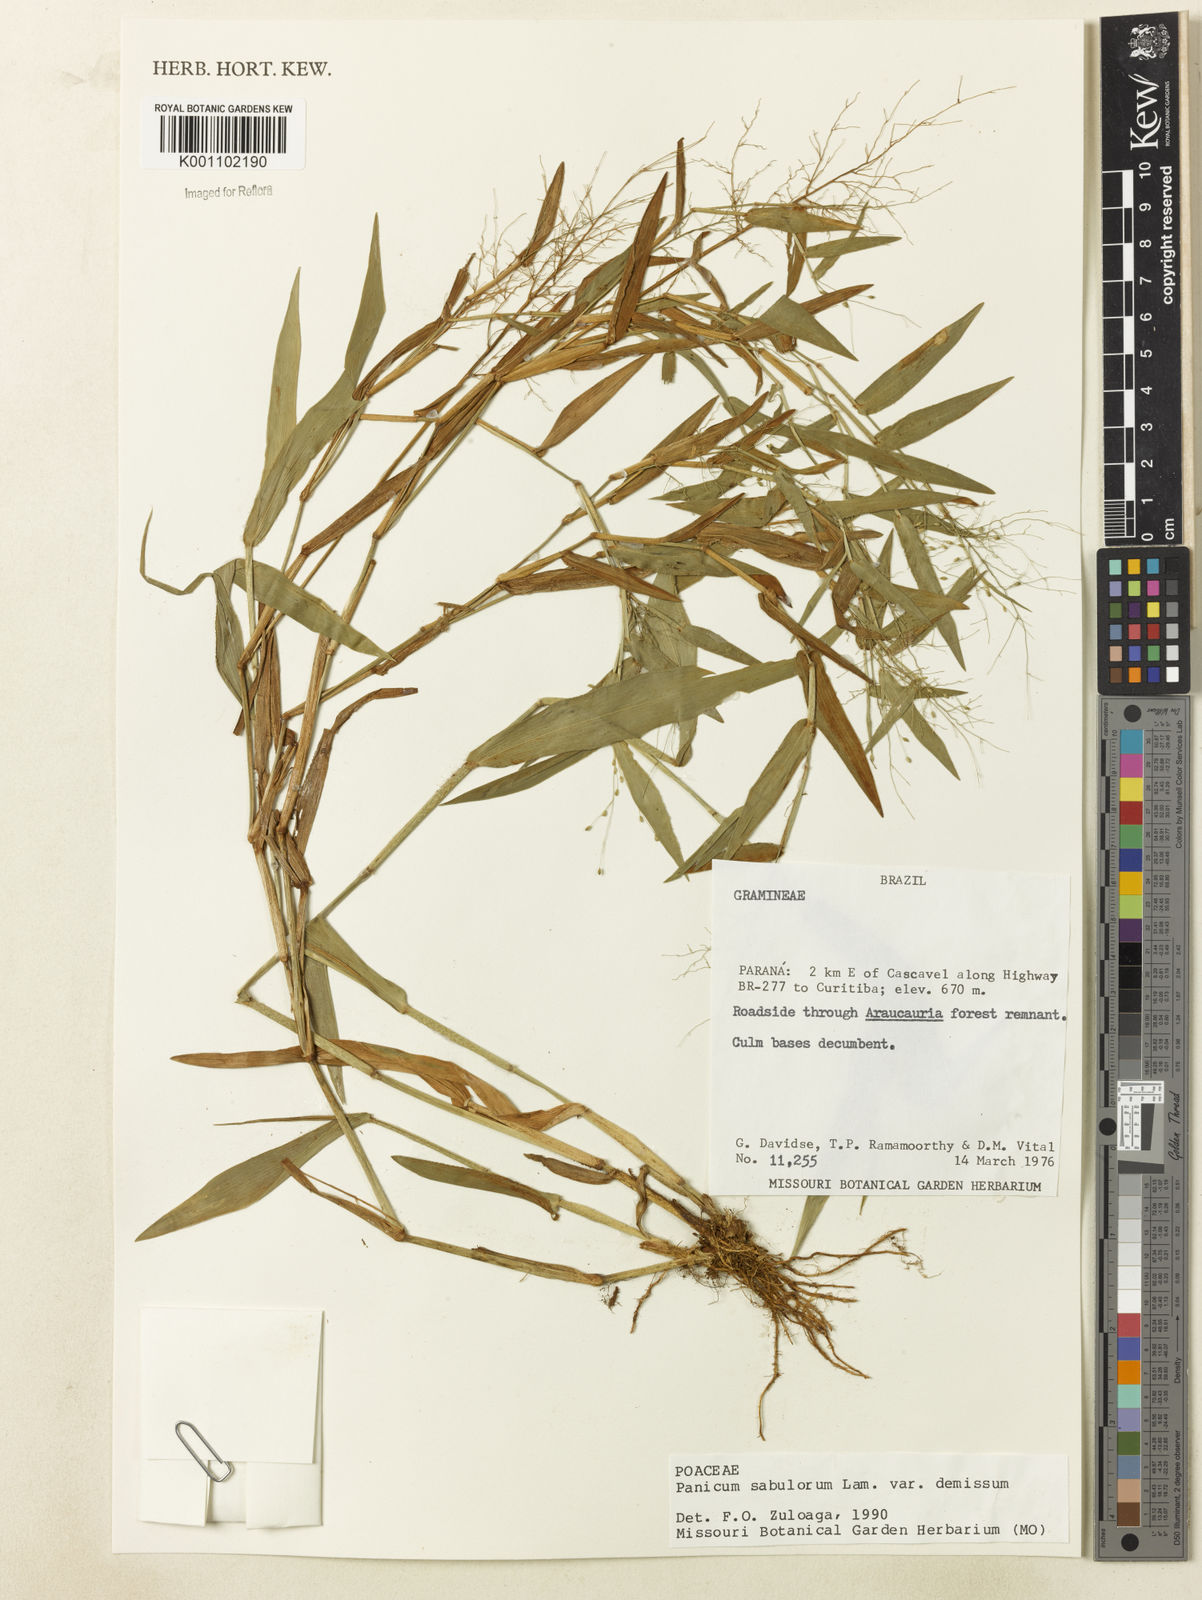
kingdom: Plantae
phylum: Tracheophyta
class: Liliopsida
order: Poales
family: Poaceae
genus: Dichanthelium
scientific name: Dichanthelium sabulorum
